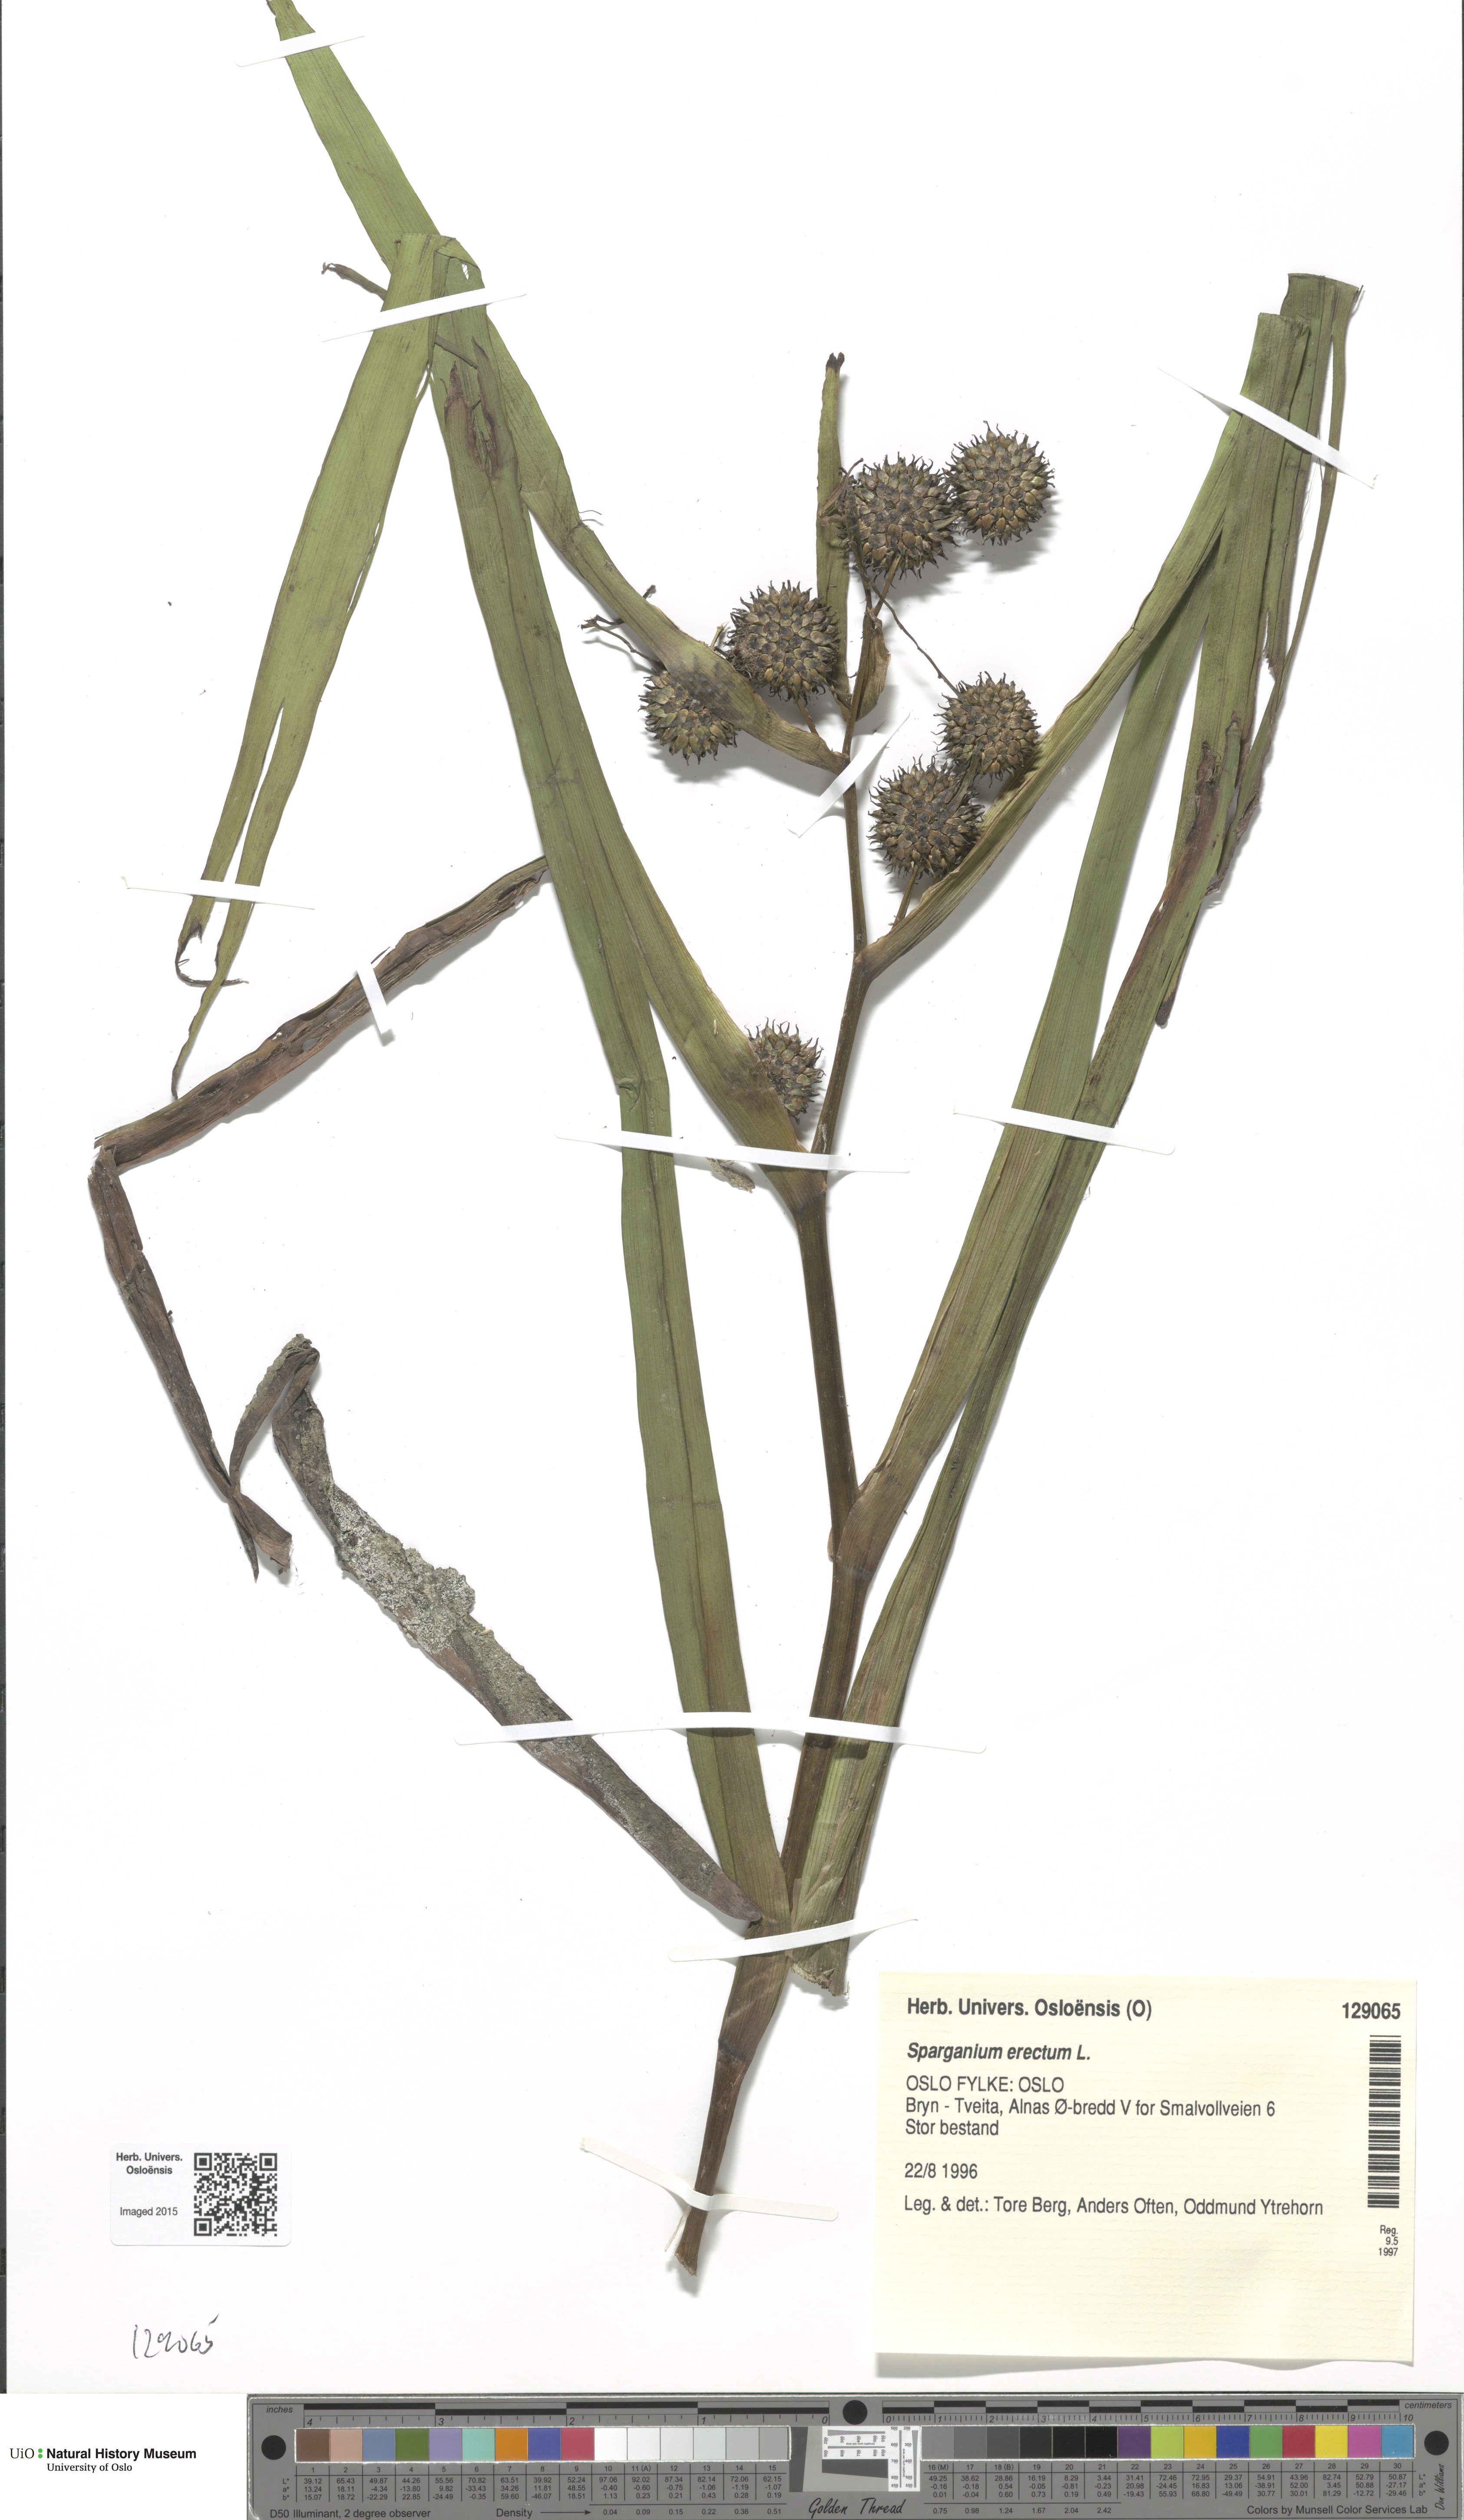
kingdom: Plantae
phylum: Tracheophyta
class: Liliopsida
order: Poales
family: Typhaceae
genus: Sparganium
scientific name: Sparganium erectum
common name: Branched bur-reed
